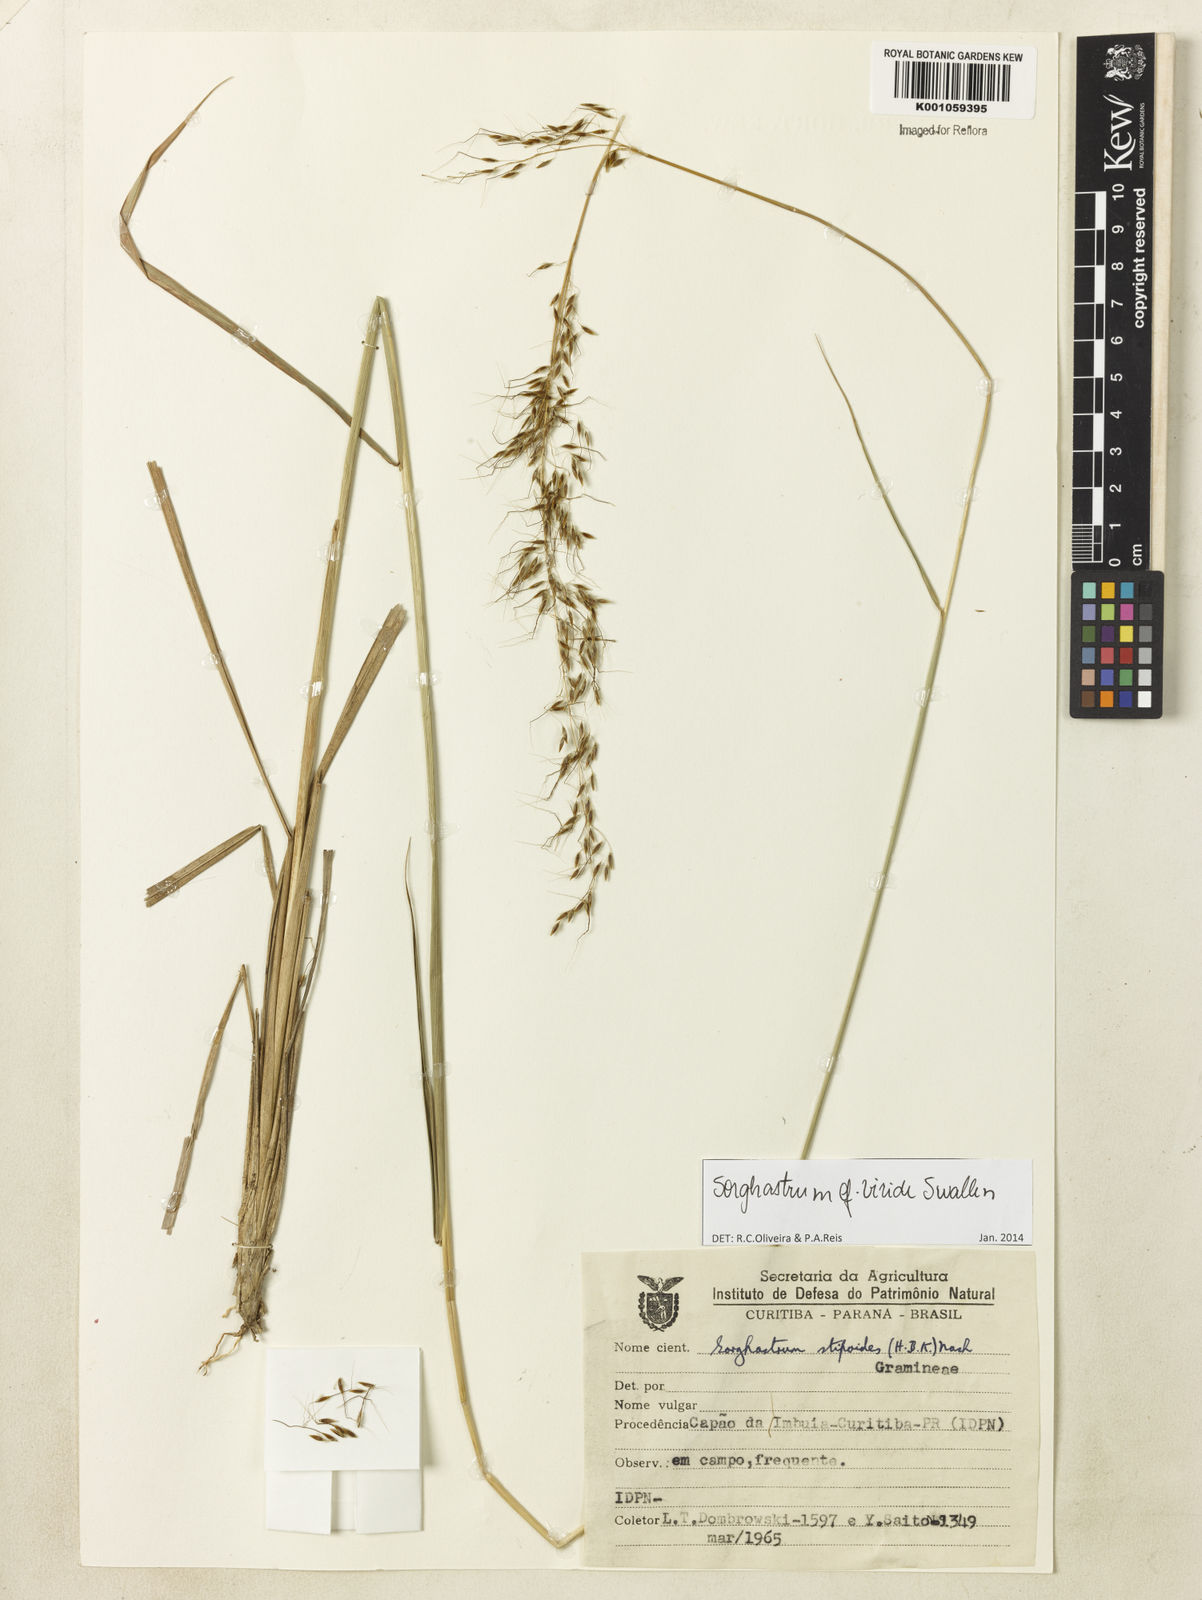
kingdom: Plantae
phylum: Tracheophyta
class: Liliopsida
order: Poales
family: Poaceae
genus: Sorghastrum
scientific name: Sorghastrum viride
